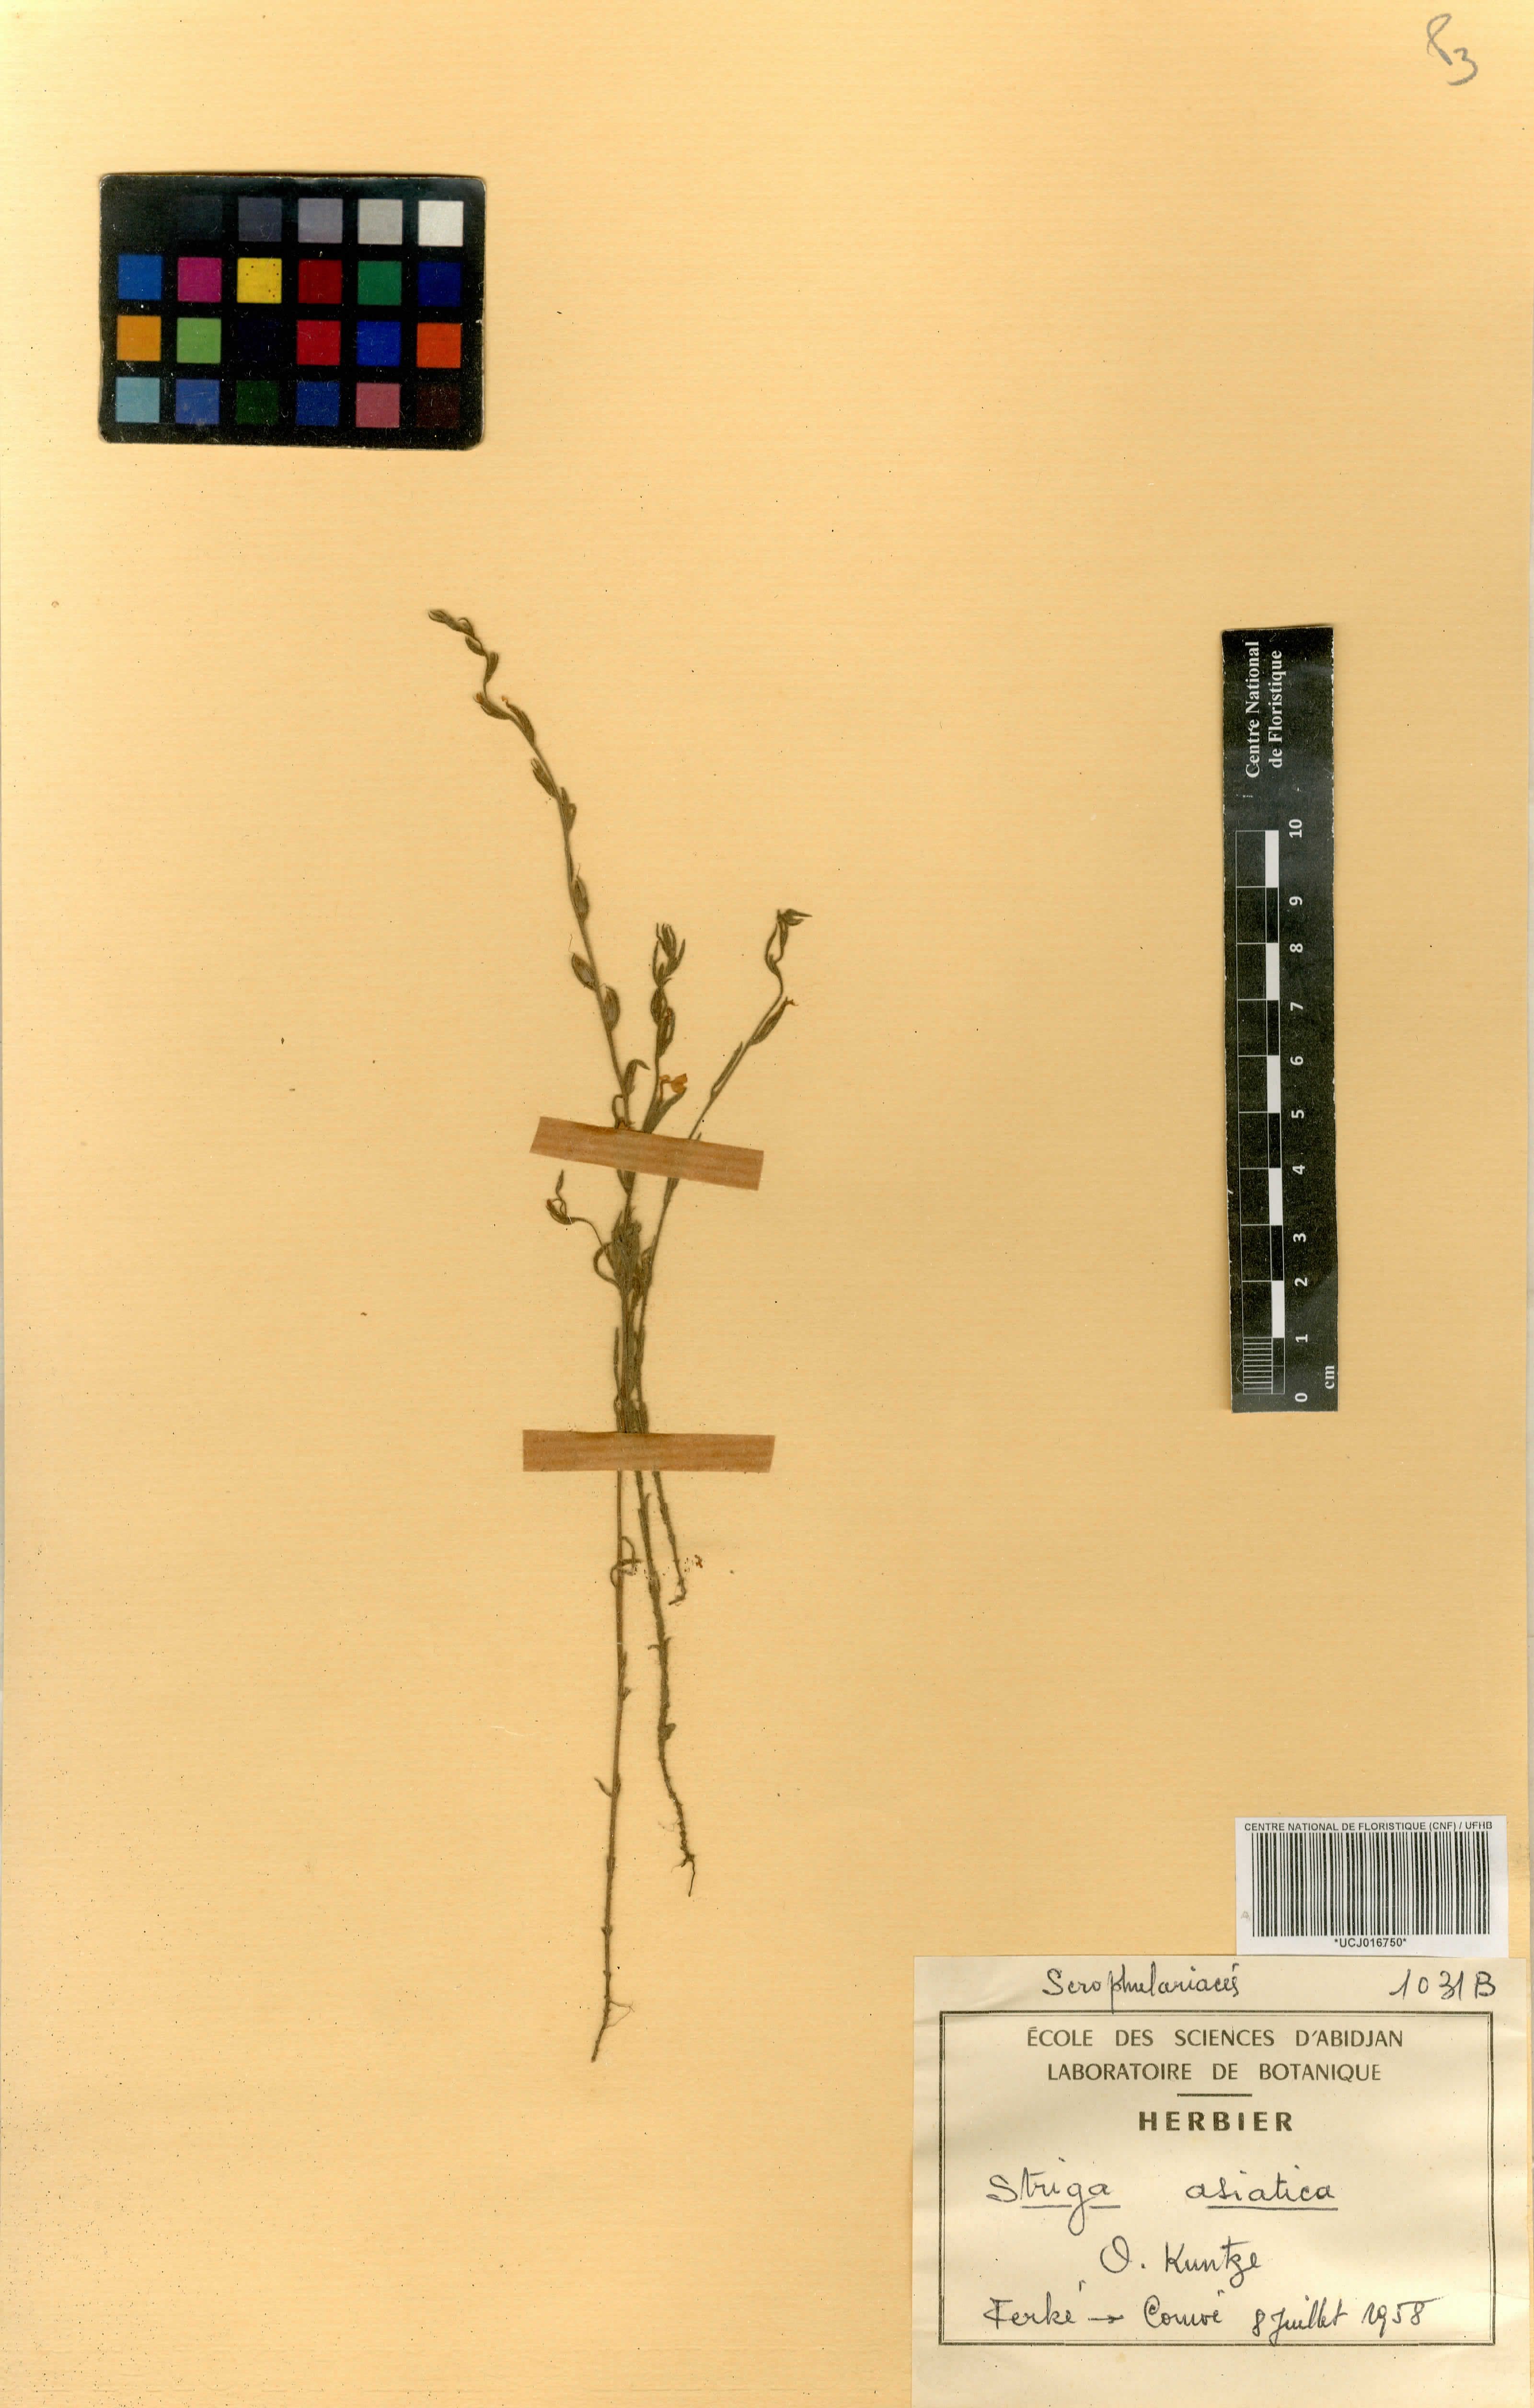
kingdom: Plantae
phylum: Tracheophyta
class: Magnoliopsida
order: Lamiales
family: Orobanchaceae
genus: Striga
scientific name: Striga asiatica
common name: Asiatic witchweed
